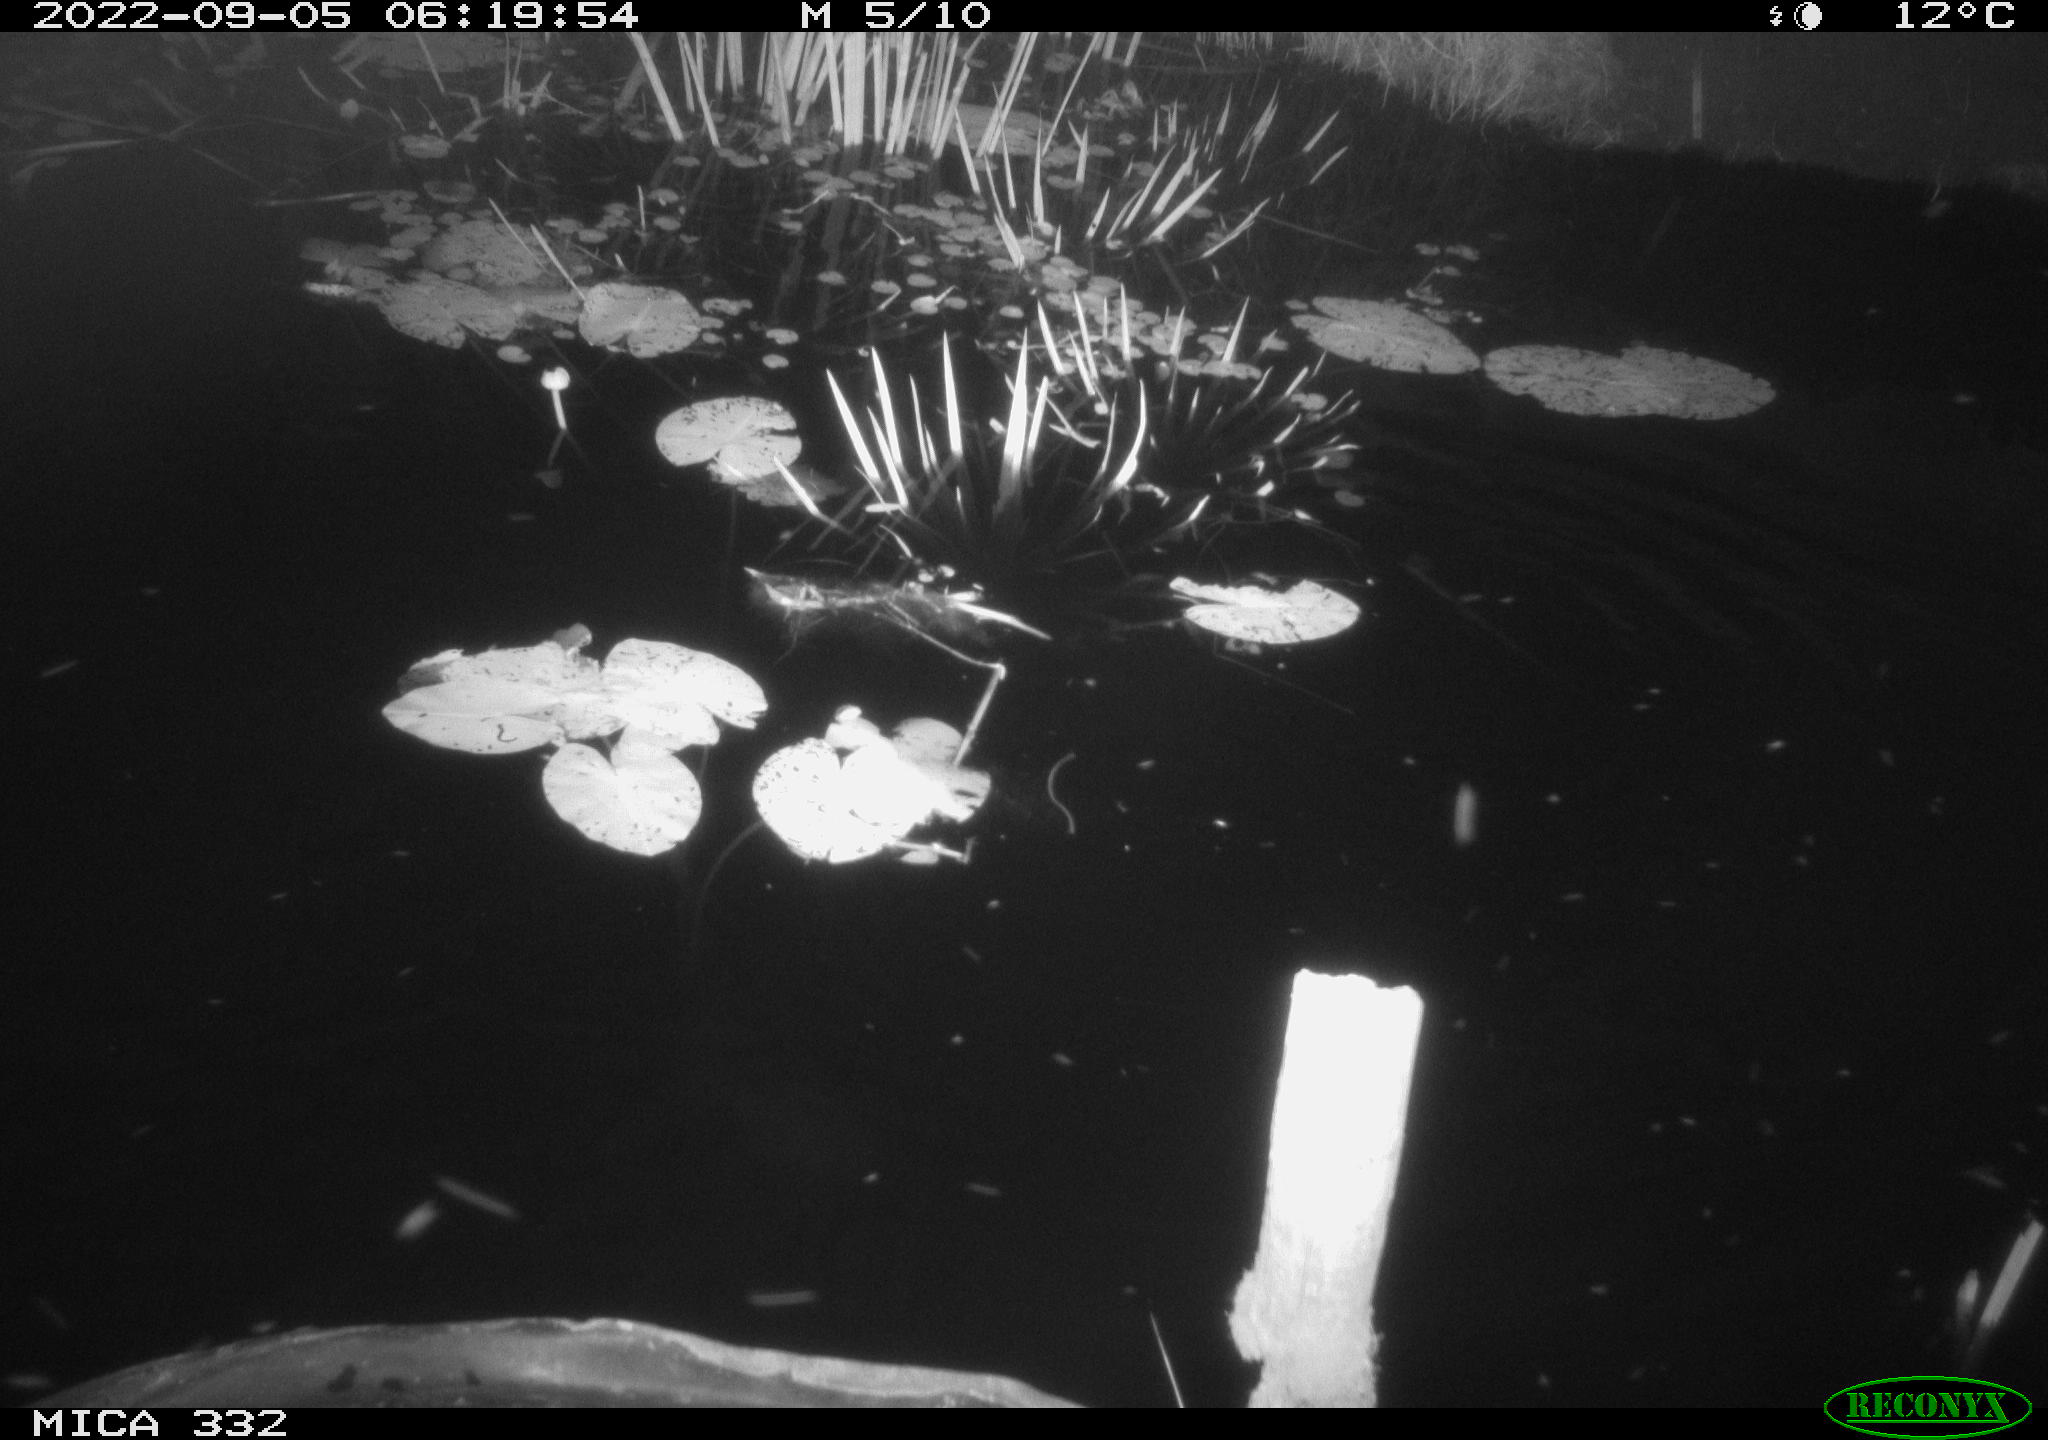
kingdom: Animalia
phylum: Chordata
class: Aves
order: Anseriformes
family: Anatidae
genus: Anas
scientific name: Anas platyrhynchos
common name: Mallard
